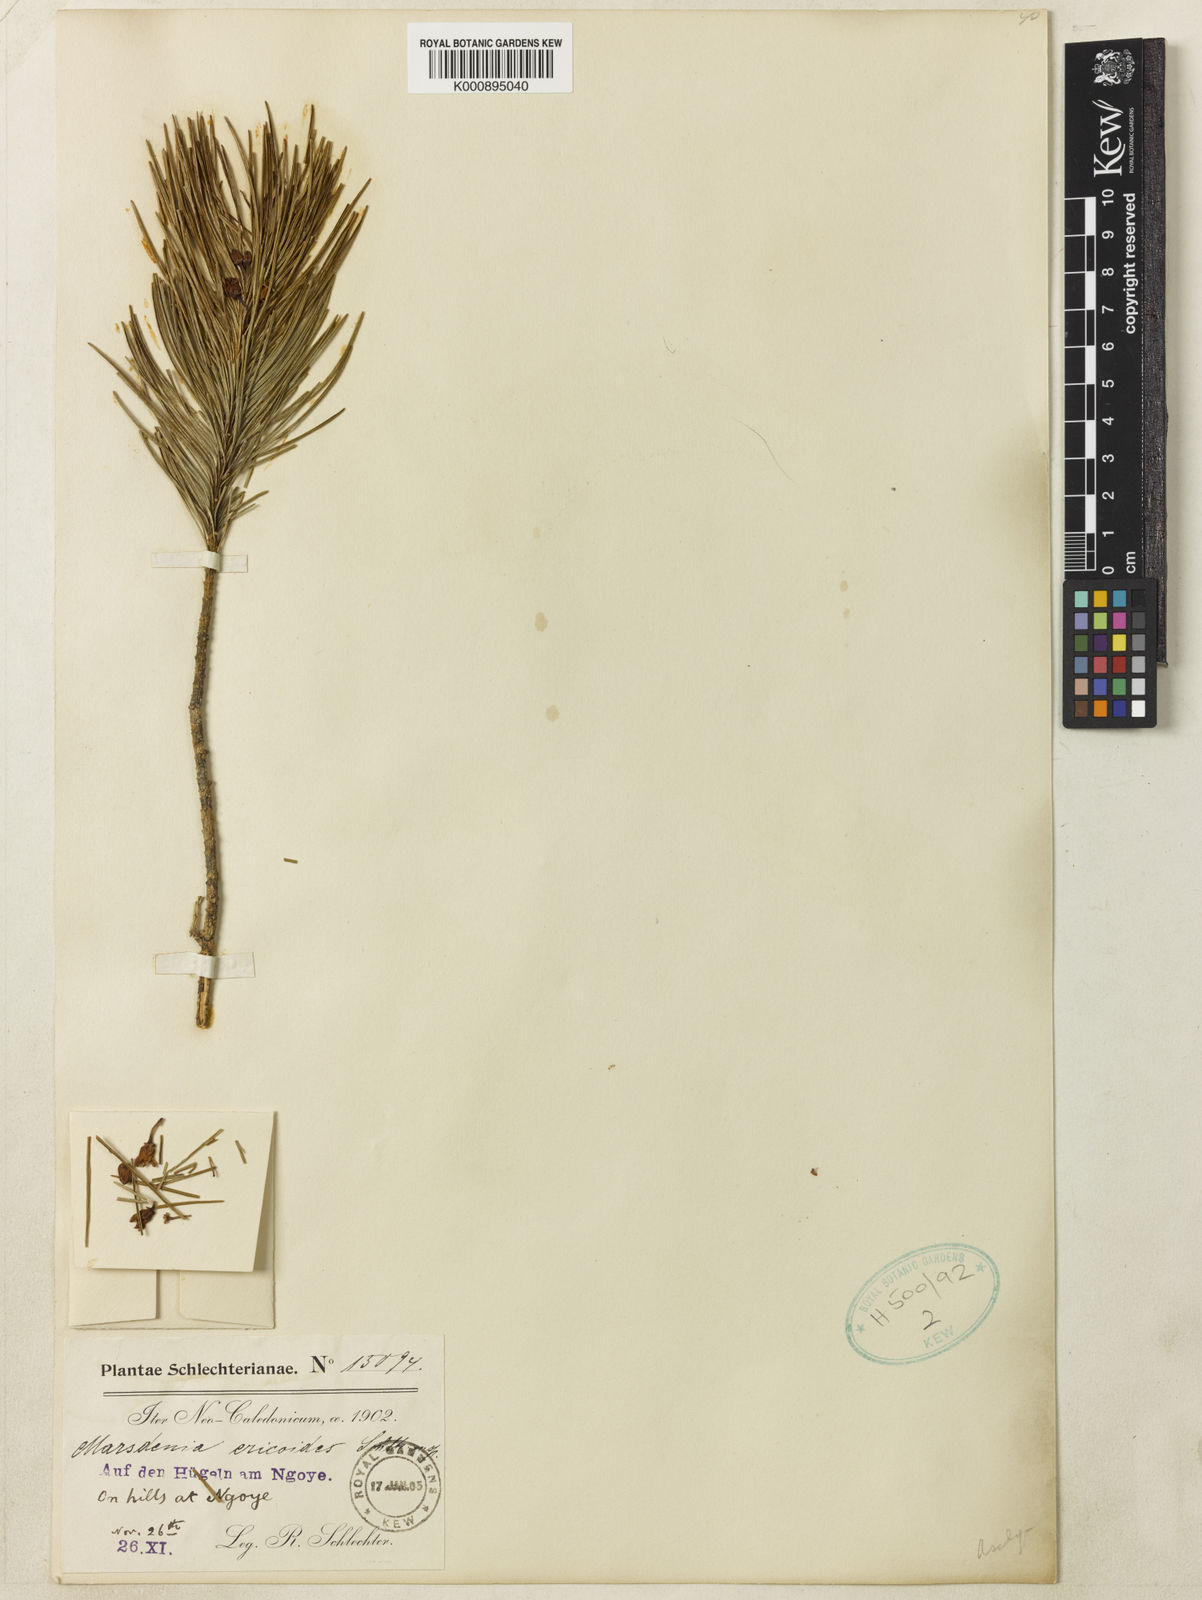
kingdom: Plantae
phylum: Tracheophyta
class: Magnoliopsida
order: Gentianales
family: Apocynaceae
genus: Leichhardtia
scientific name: Leichhardtia ericoides
